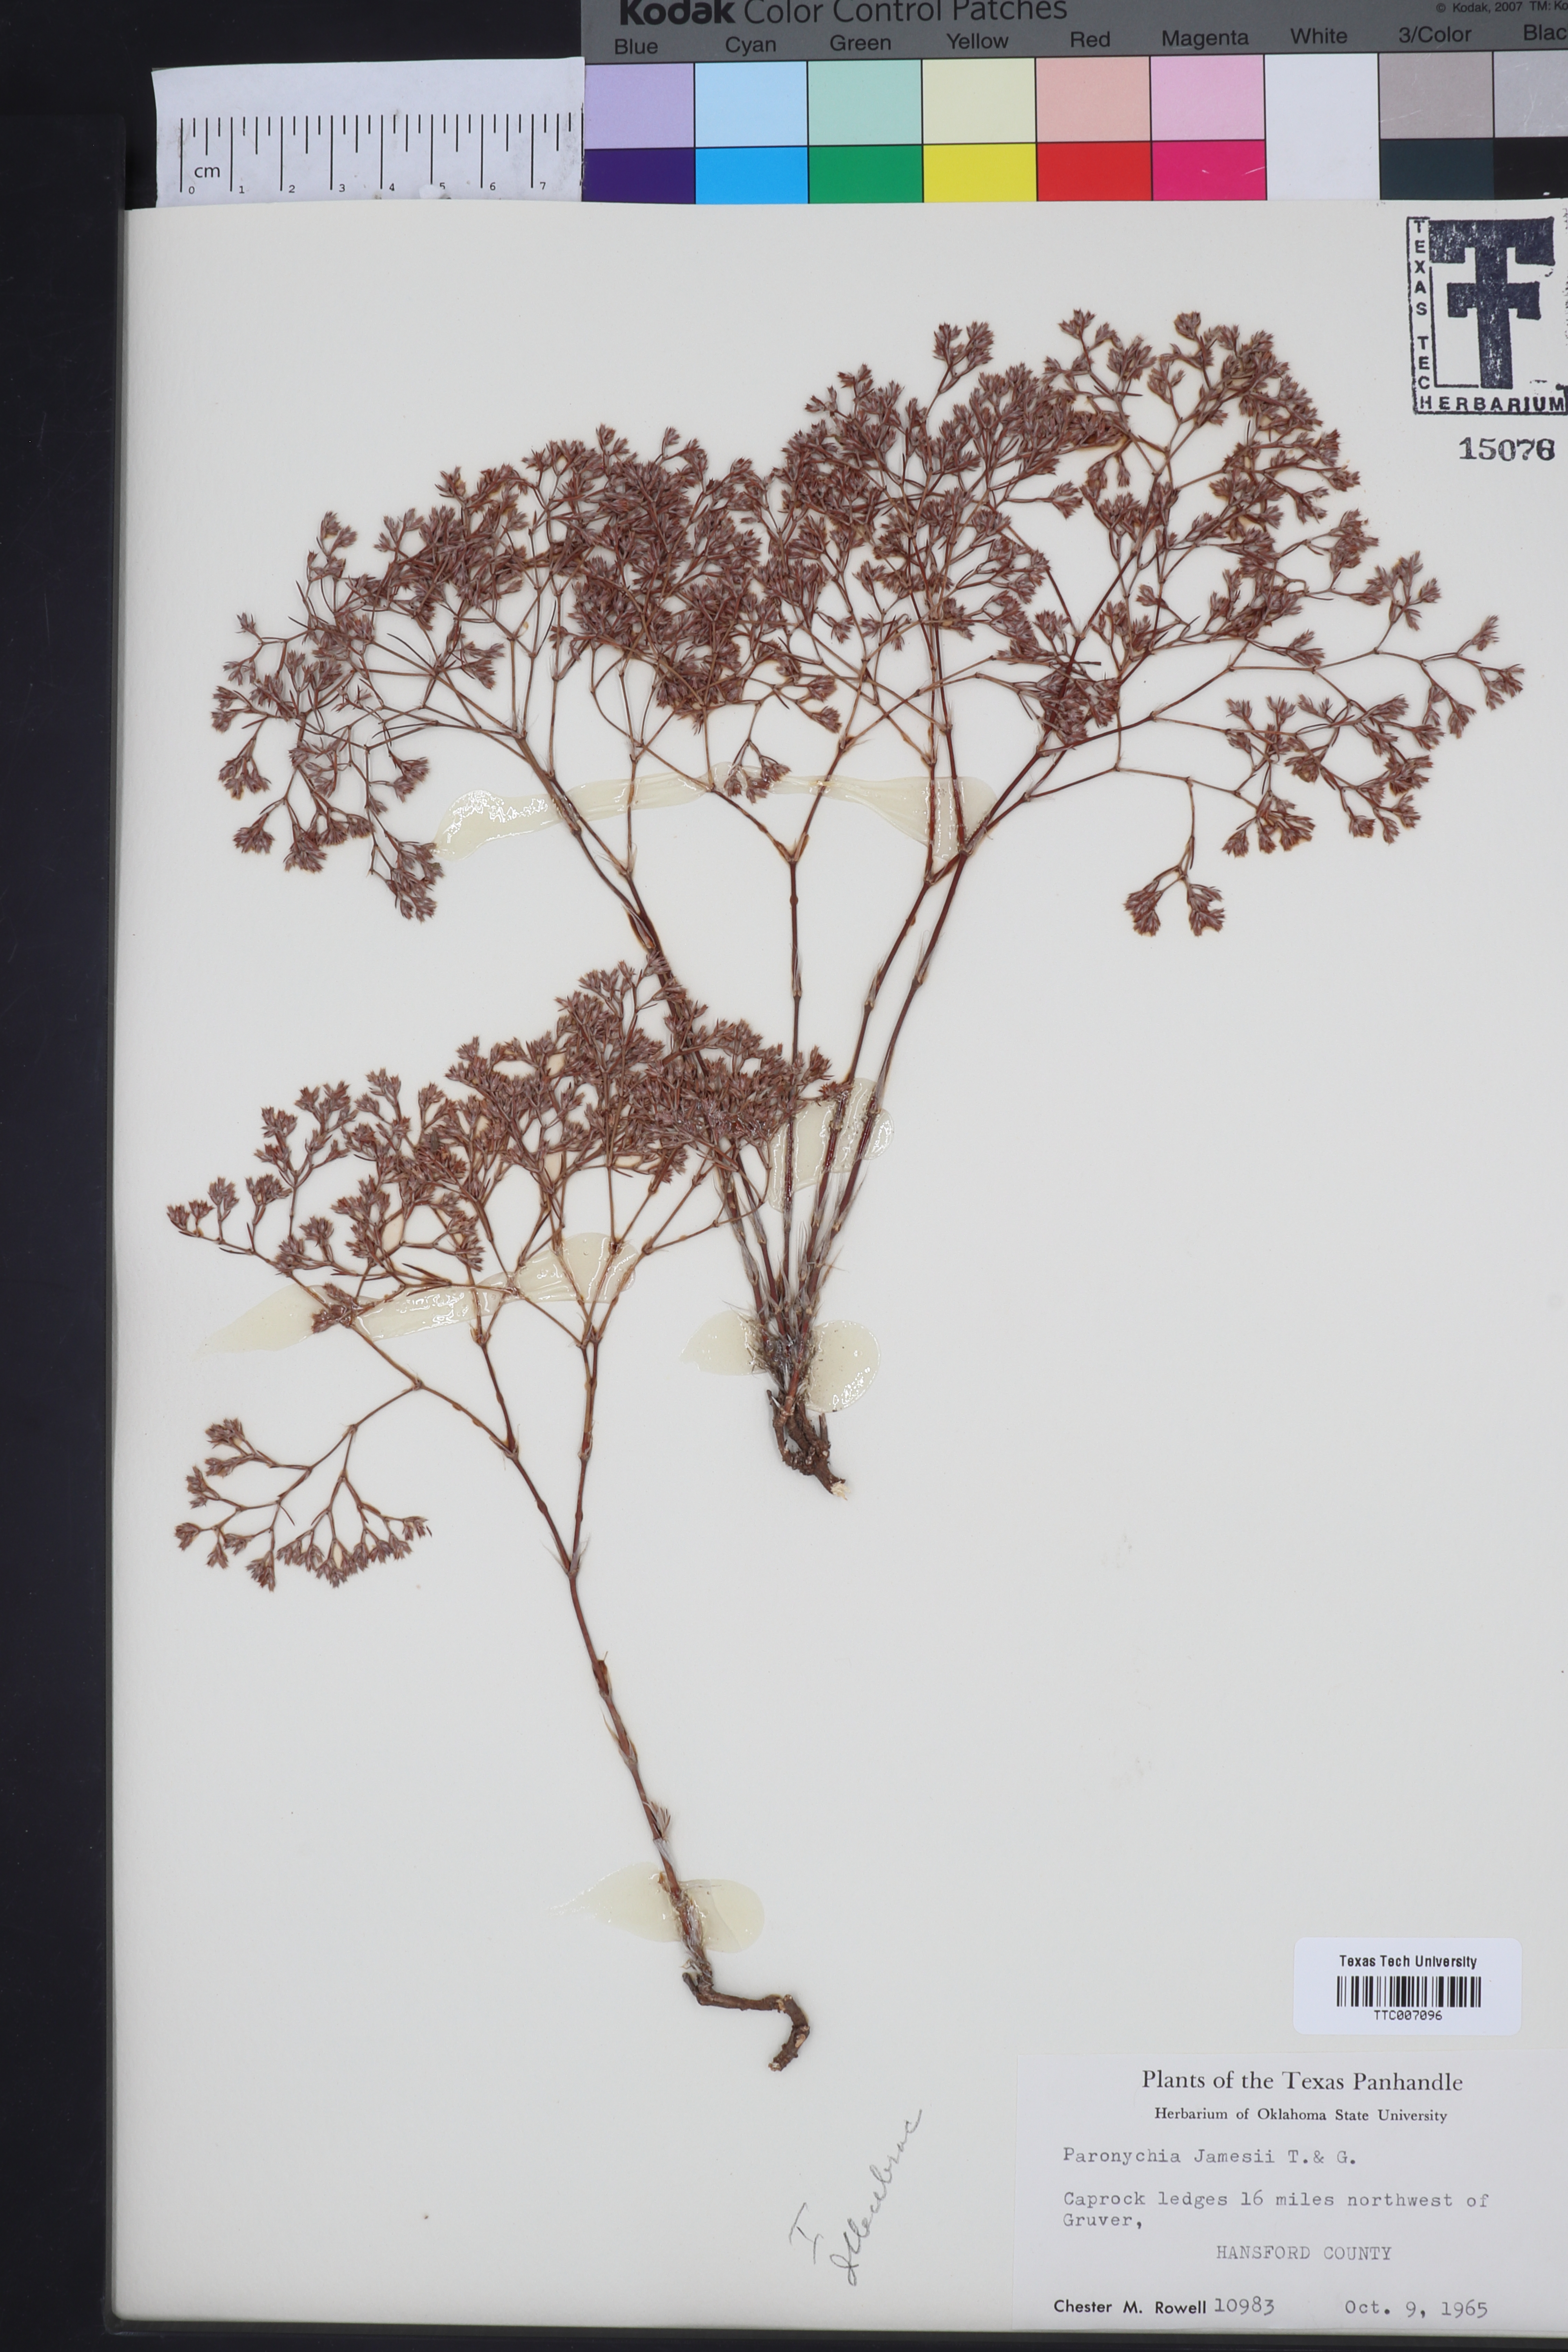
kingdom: Plantae
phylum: Tracheophyta
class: Magnoliopsida
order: Caryophyllales
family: Caryophyllaceae
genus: Paronychia
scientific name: Paronychia jamesii
